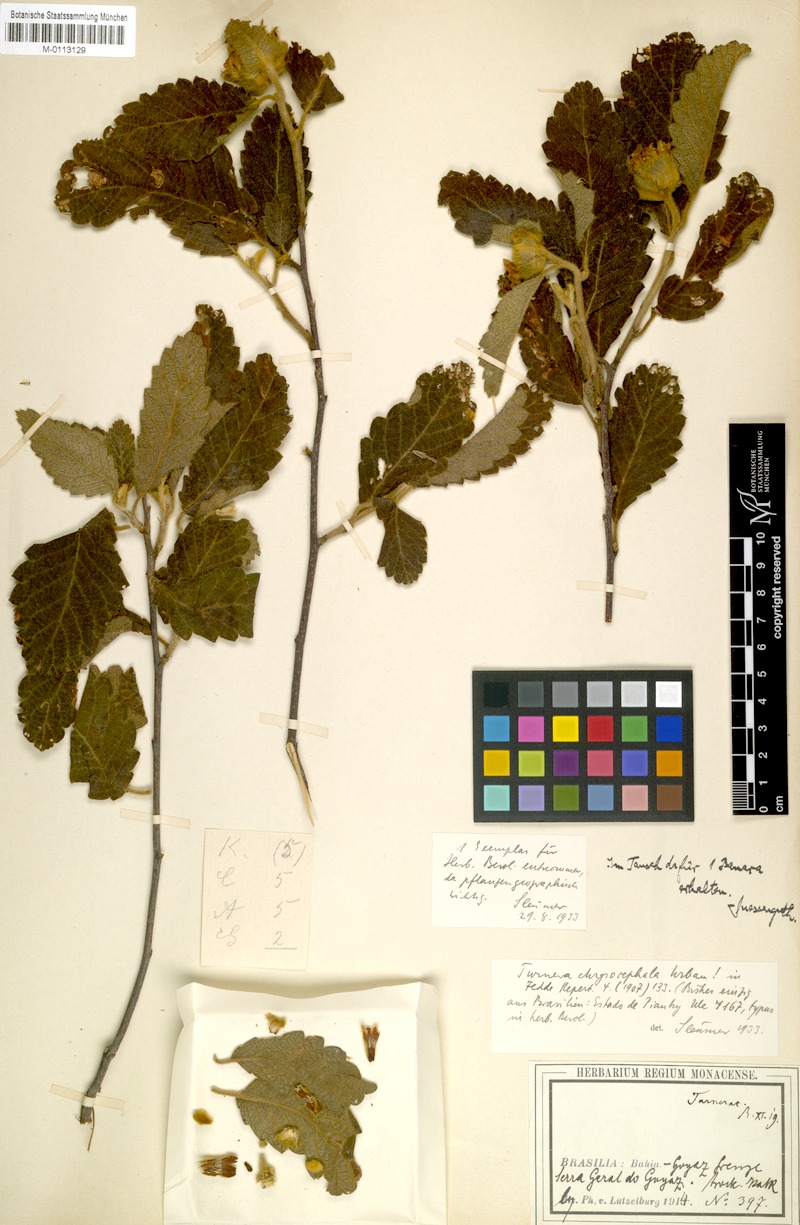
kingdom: Plantae
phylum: Tracheophyta
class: Magnoliopsida
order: Malpighiales
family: Turneraceae
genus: Turnera
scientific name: Turnera chrysocephala
